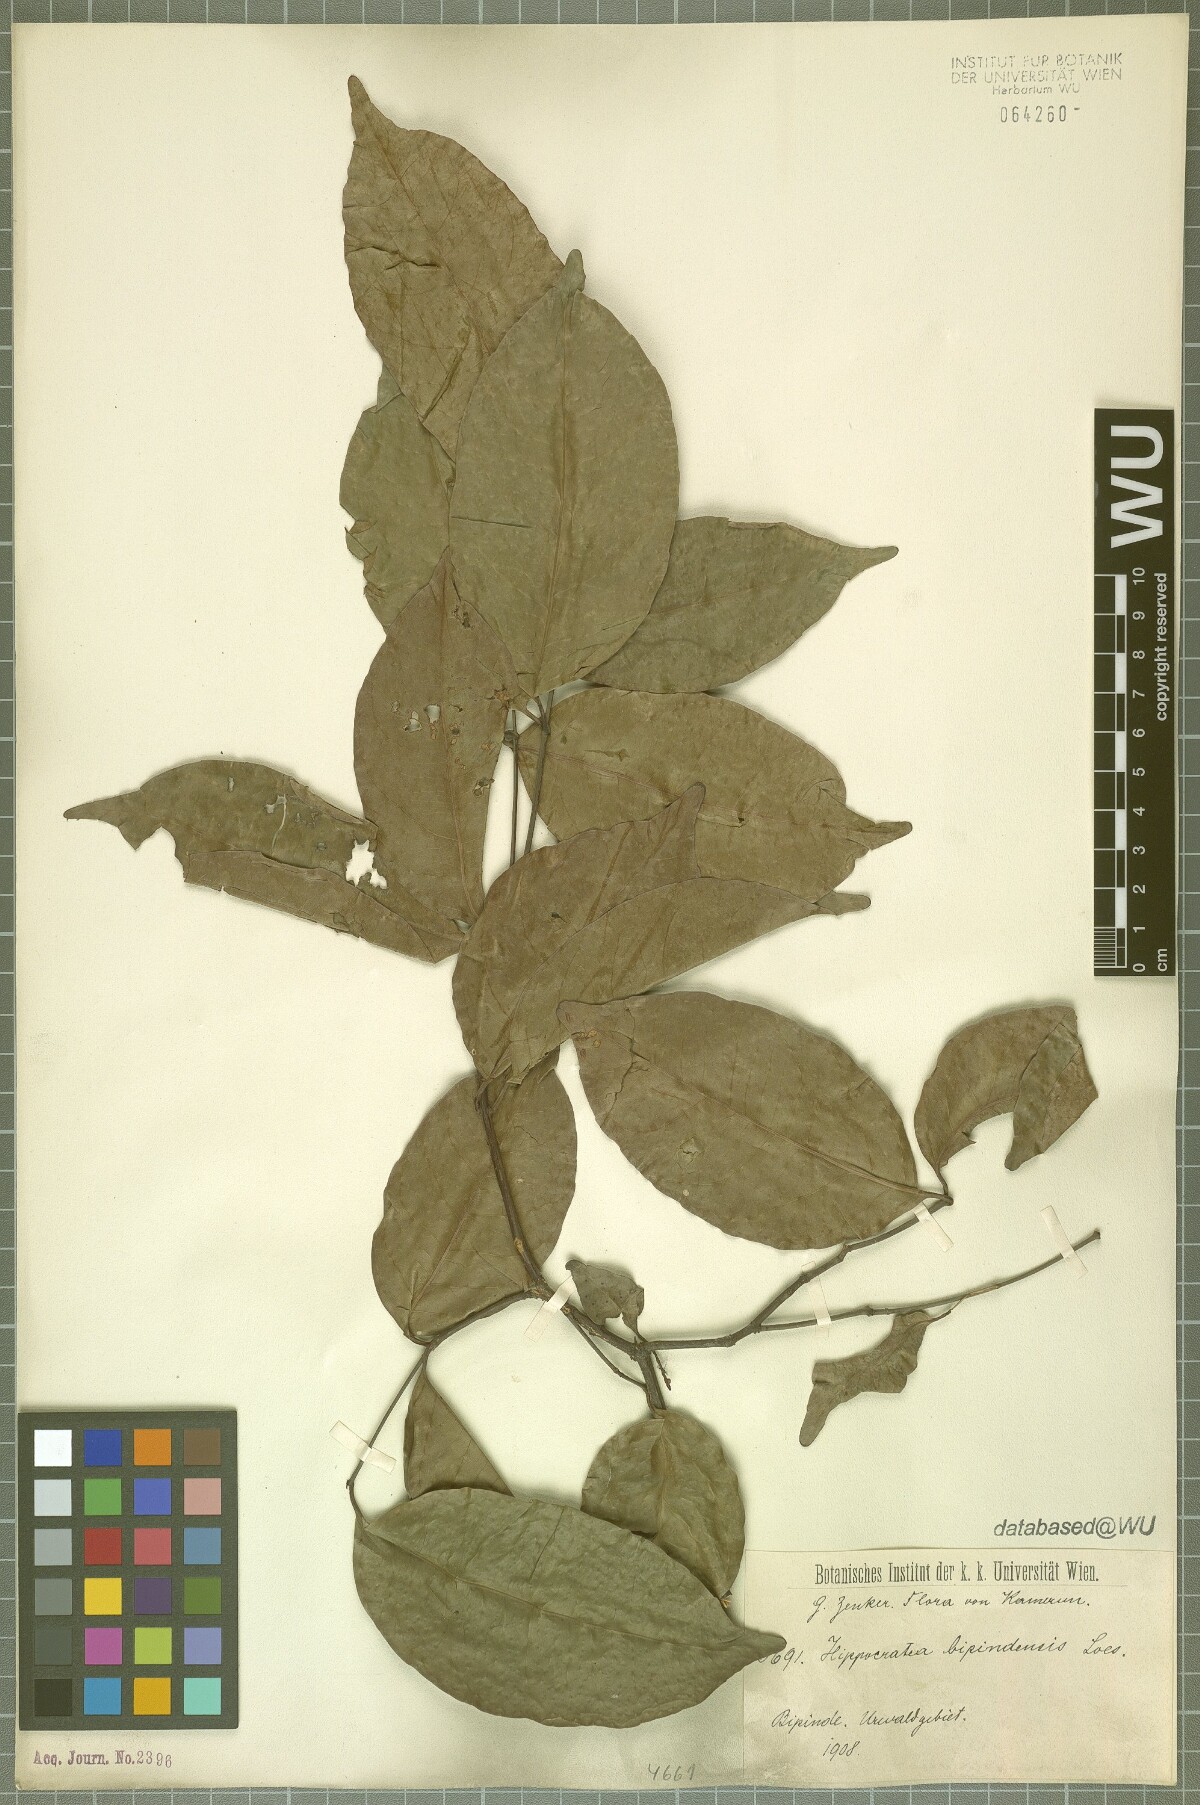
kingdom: Plantae
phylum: Tracheophyta
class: Magnoliopsida
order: Celastrales
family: Celastraceae
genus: Elachyptera
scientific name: Elachyptera bipindensis
